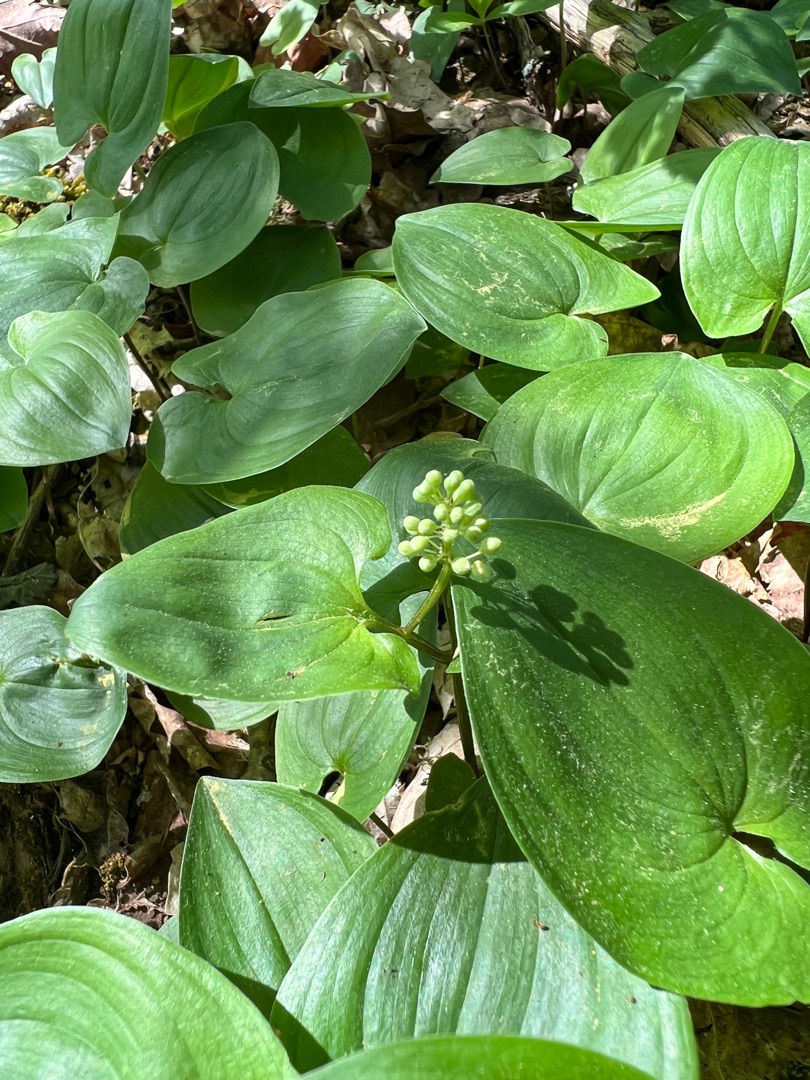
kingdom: Plantae
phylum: Tracheophyta
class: Liliopsida
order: Asparagales
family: Asparagaceae
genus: Maianthemum
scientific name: Maianthemum bifolium
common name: Majblomst
